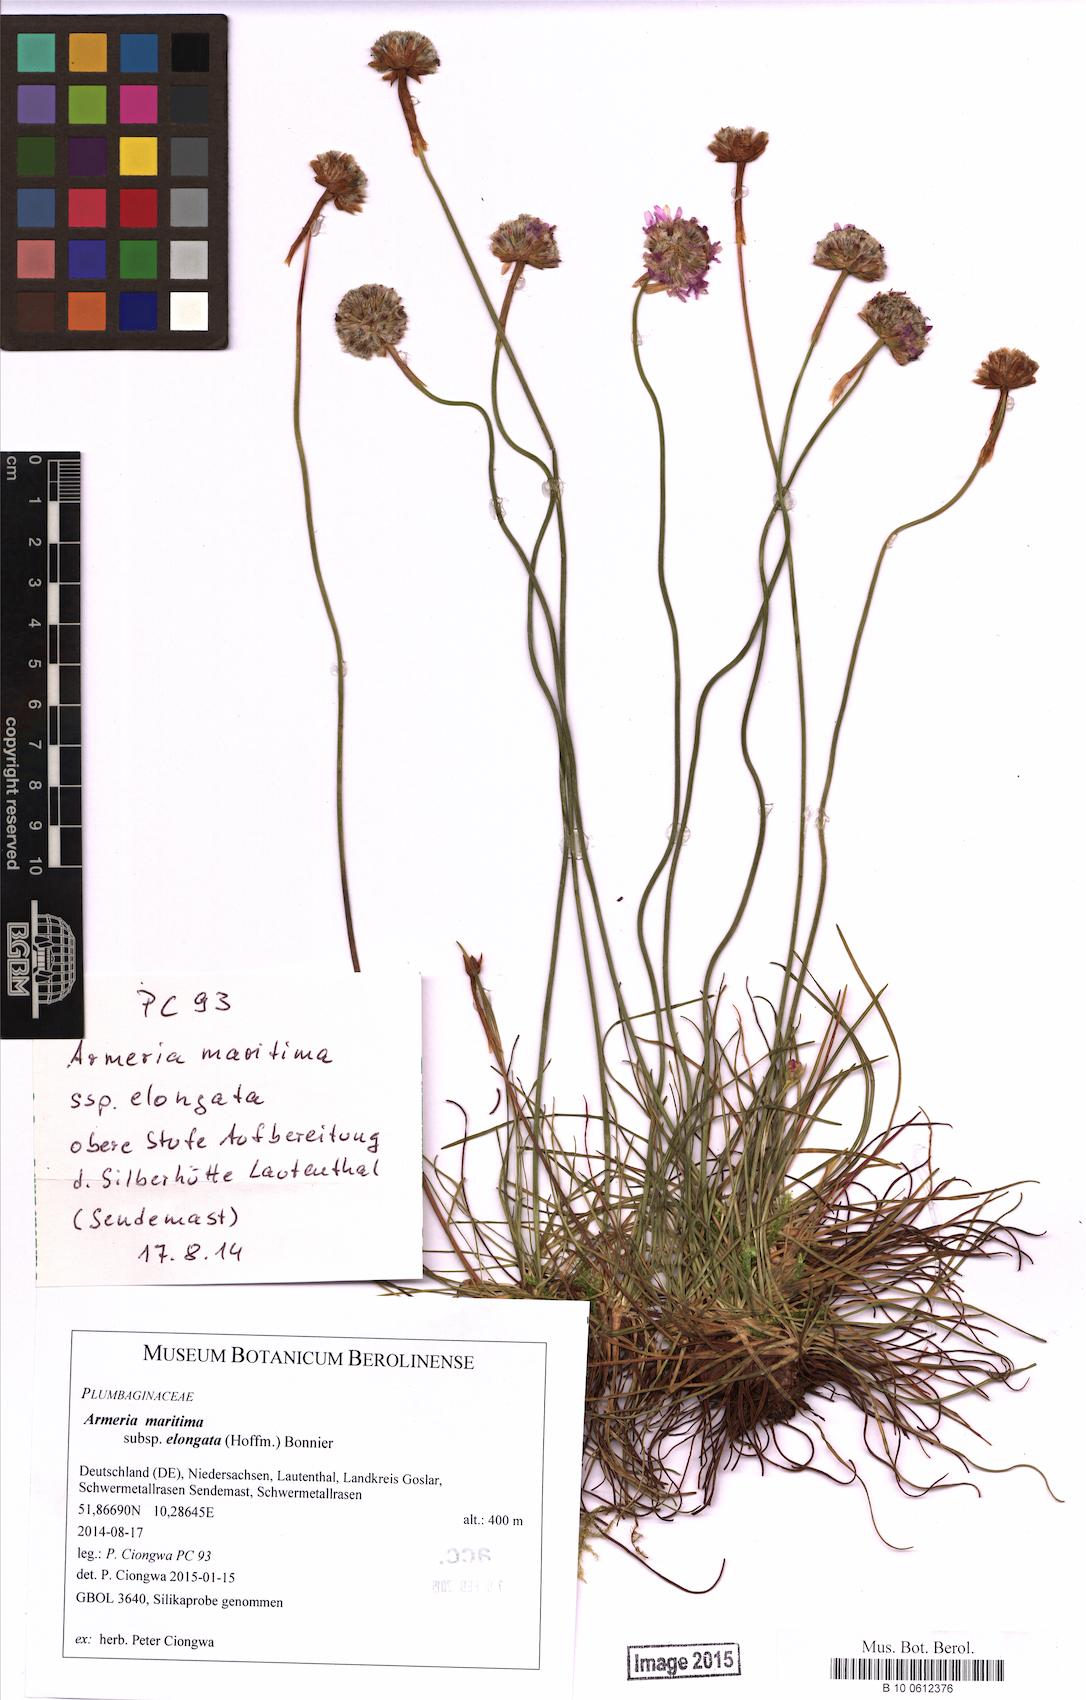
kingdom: Plantae
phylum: Tracheophyta
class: Magnoliopsida
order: Caryophyllales
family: Plumbaginaceae
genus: Armeria
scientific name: Armeria maritima
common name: Thrift
